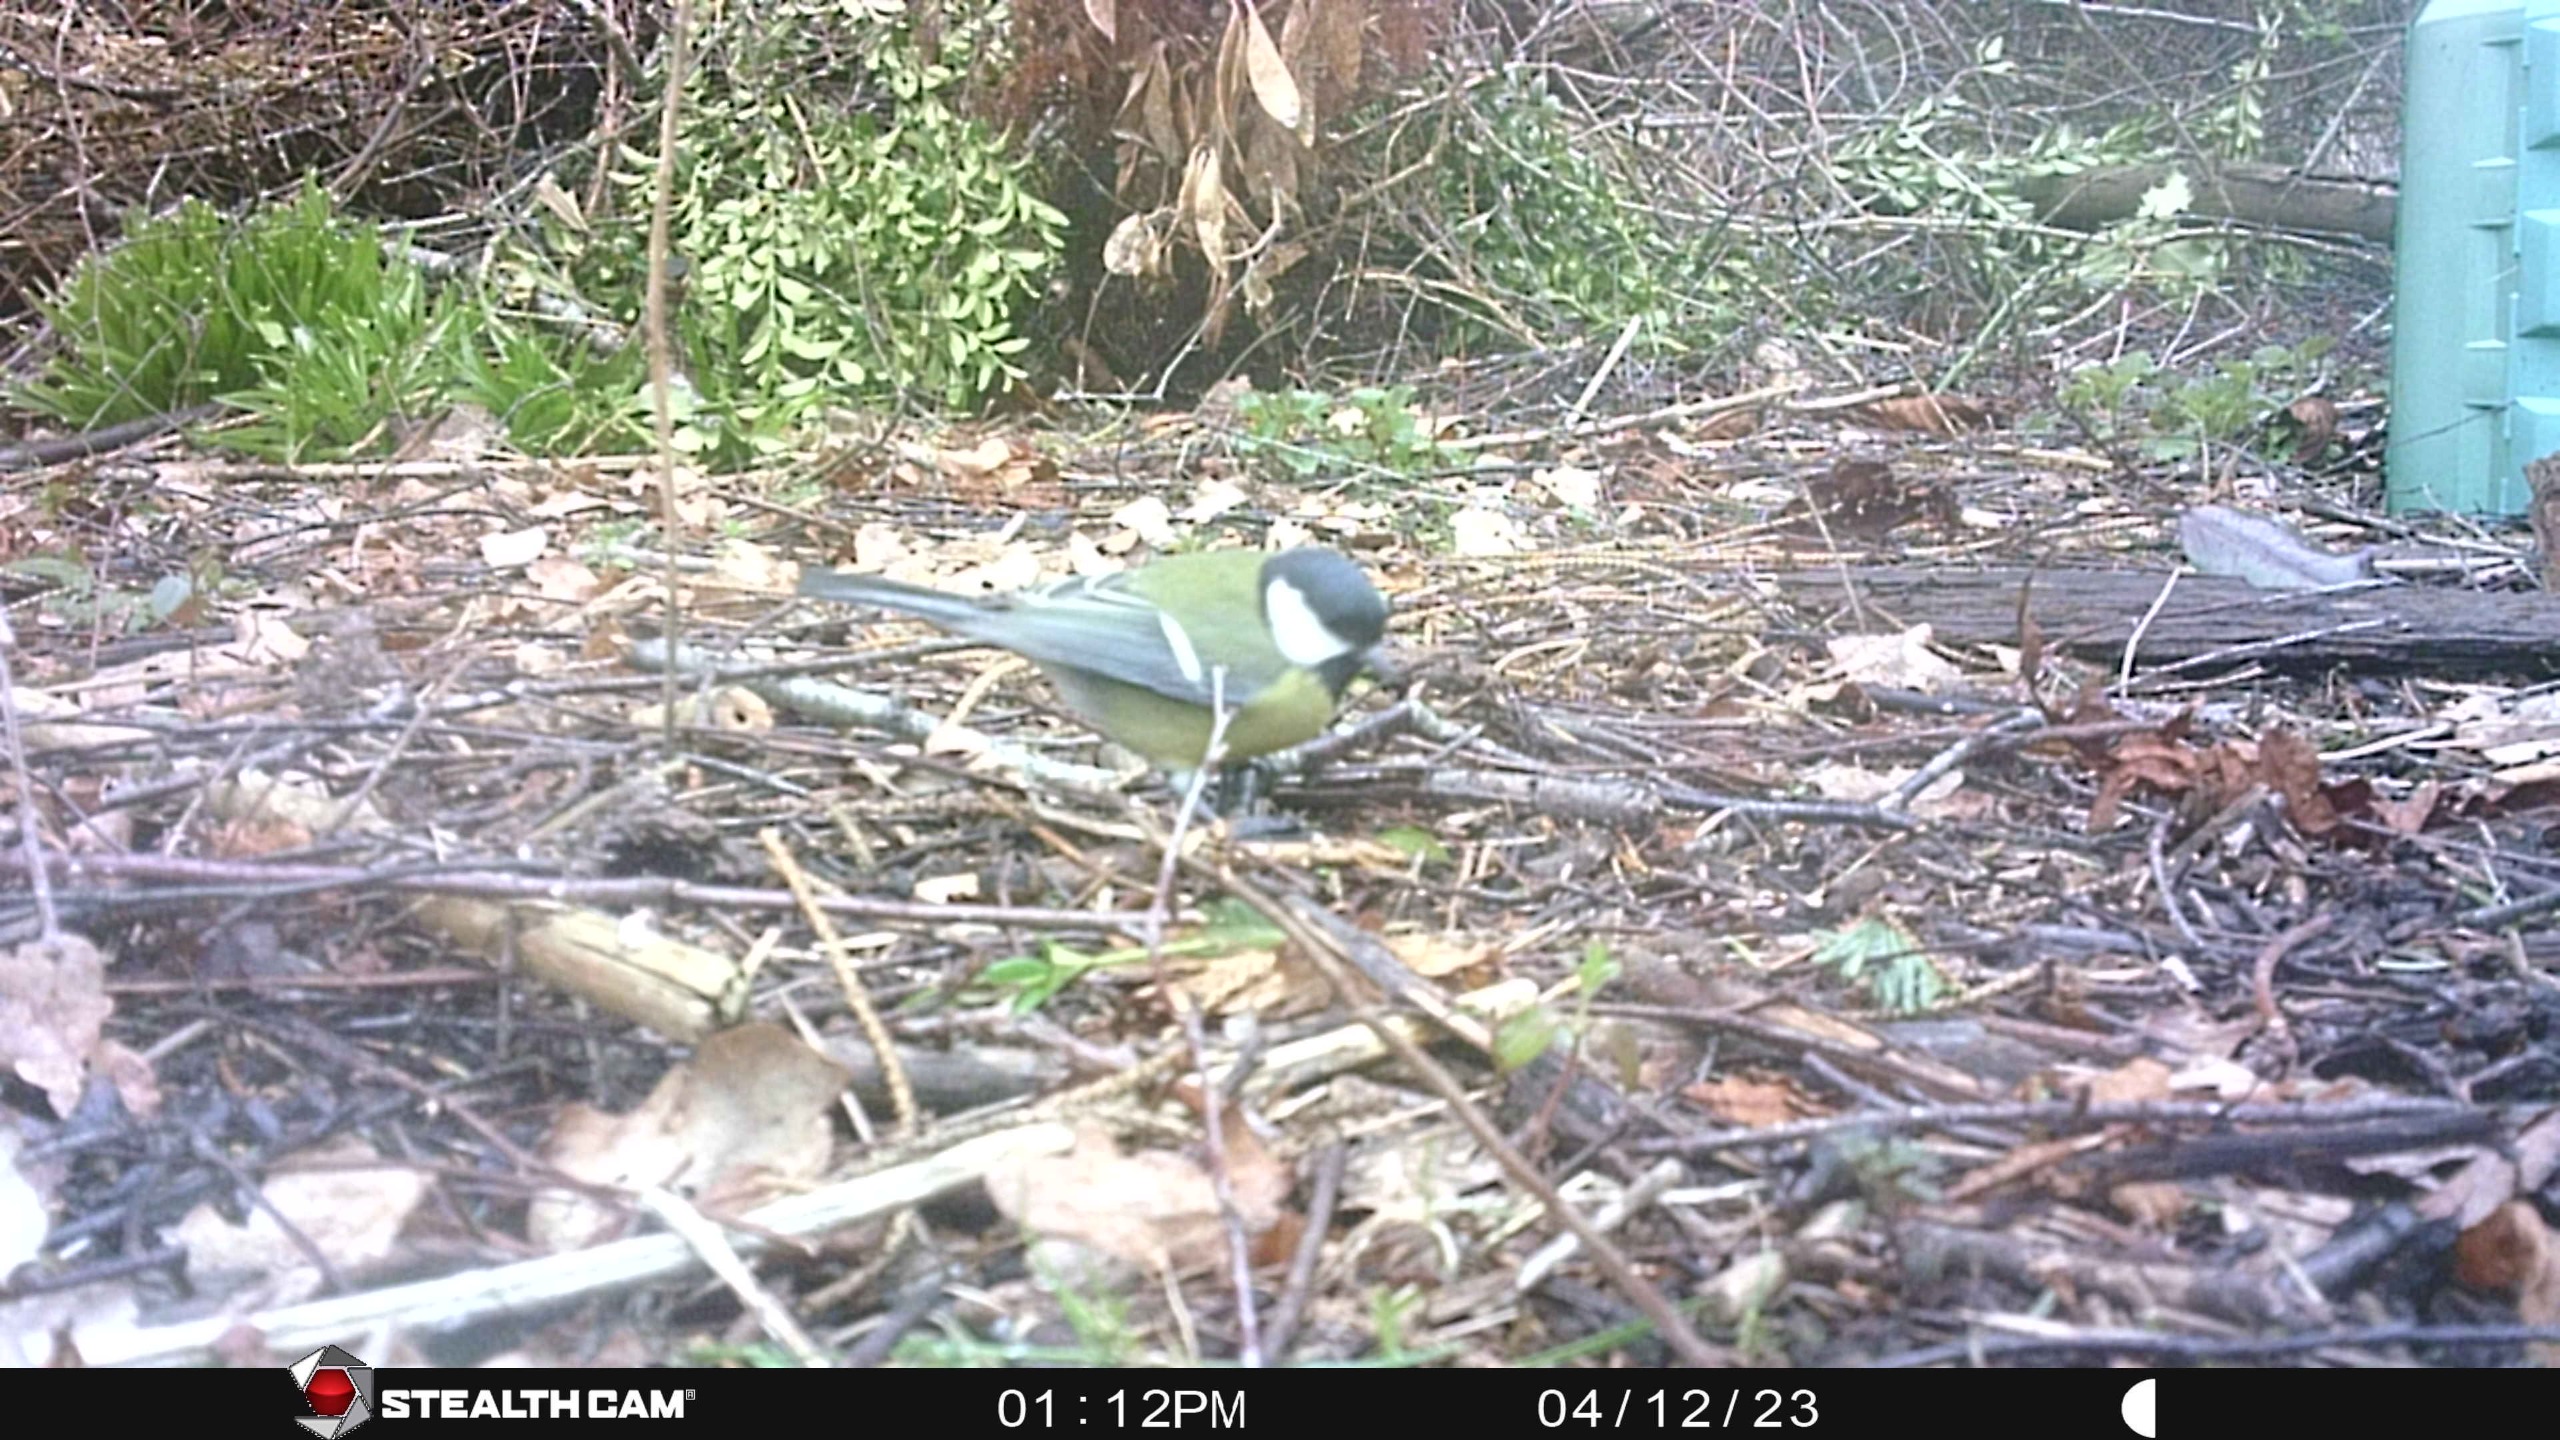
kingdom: Animalia
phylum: Chordata
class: Aves
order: Passeriformes
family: Paridae
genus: Parus
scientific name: Parus major
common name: Musvit
